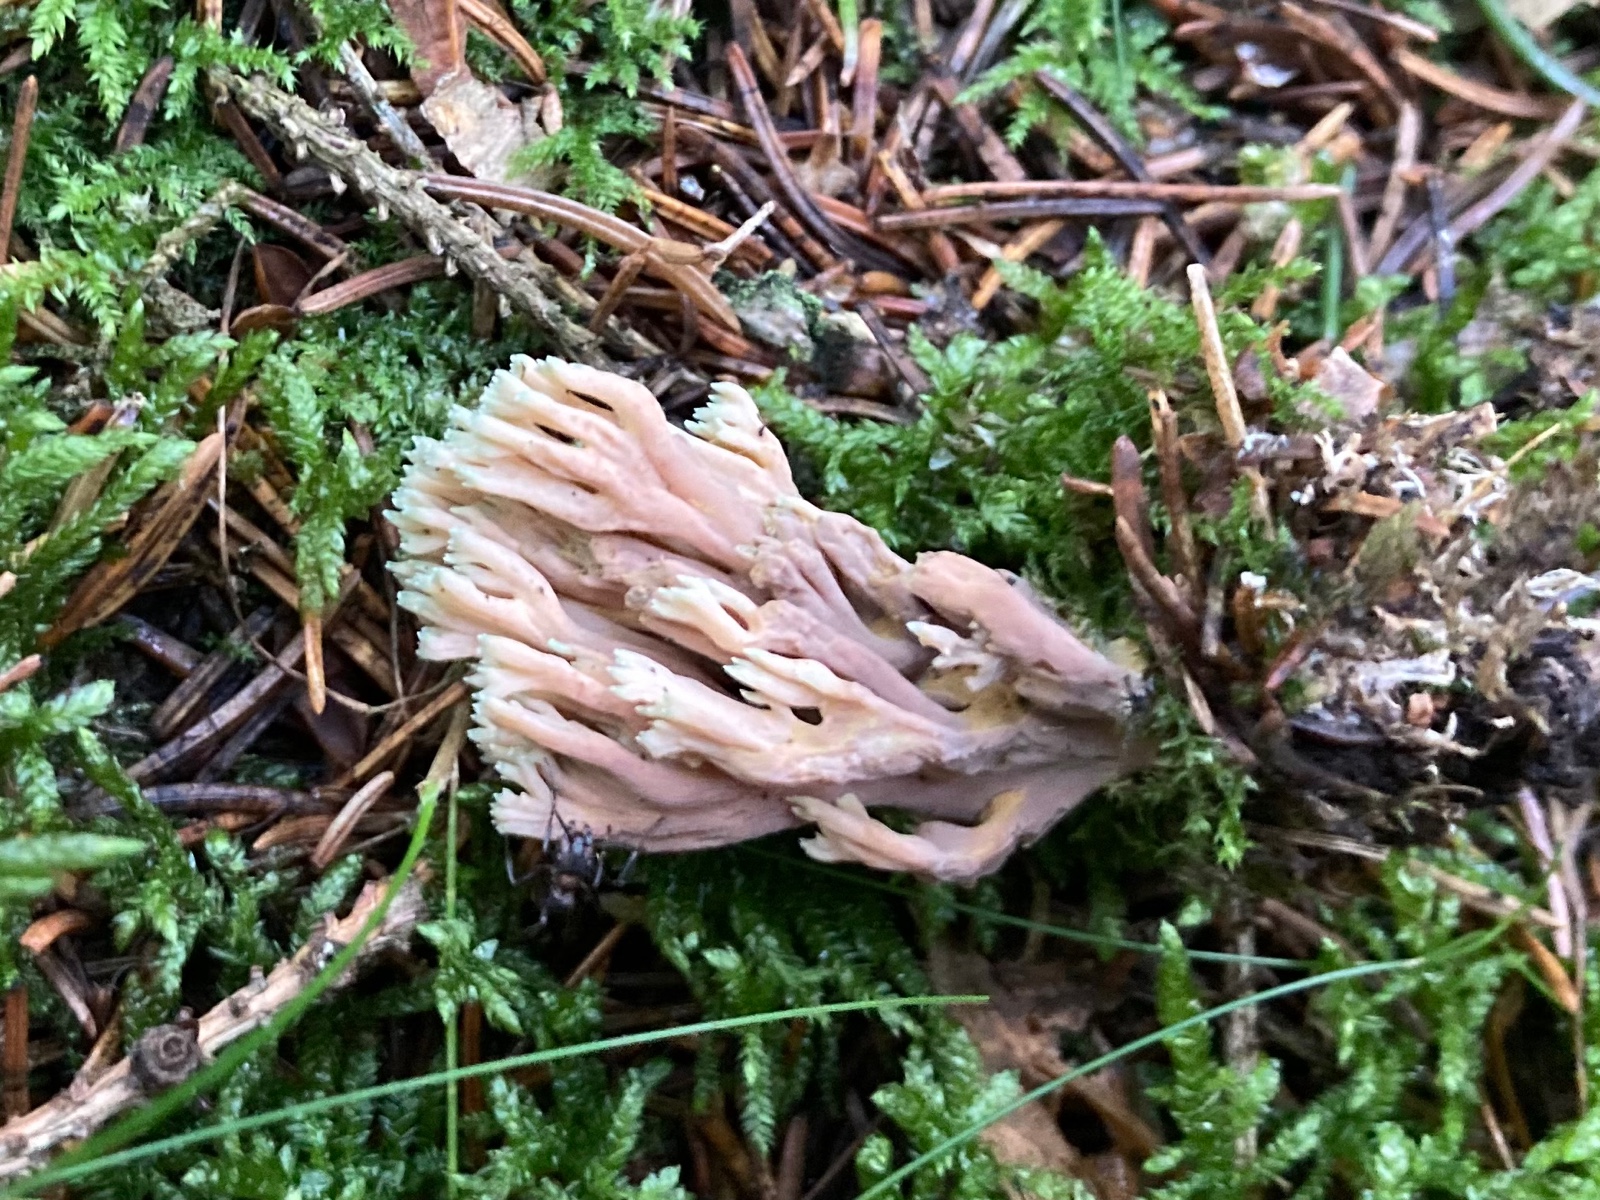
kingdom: Fungi
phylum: Basidiomycota
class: Agaricomycetes
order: Gomphales
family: Gomphaceae
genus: Ramaria
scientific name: Ramaria apiculata
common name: grøntoppet koralsvamp
